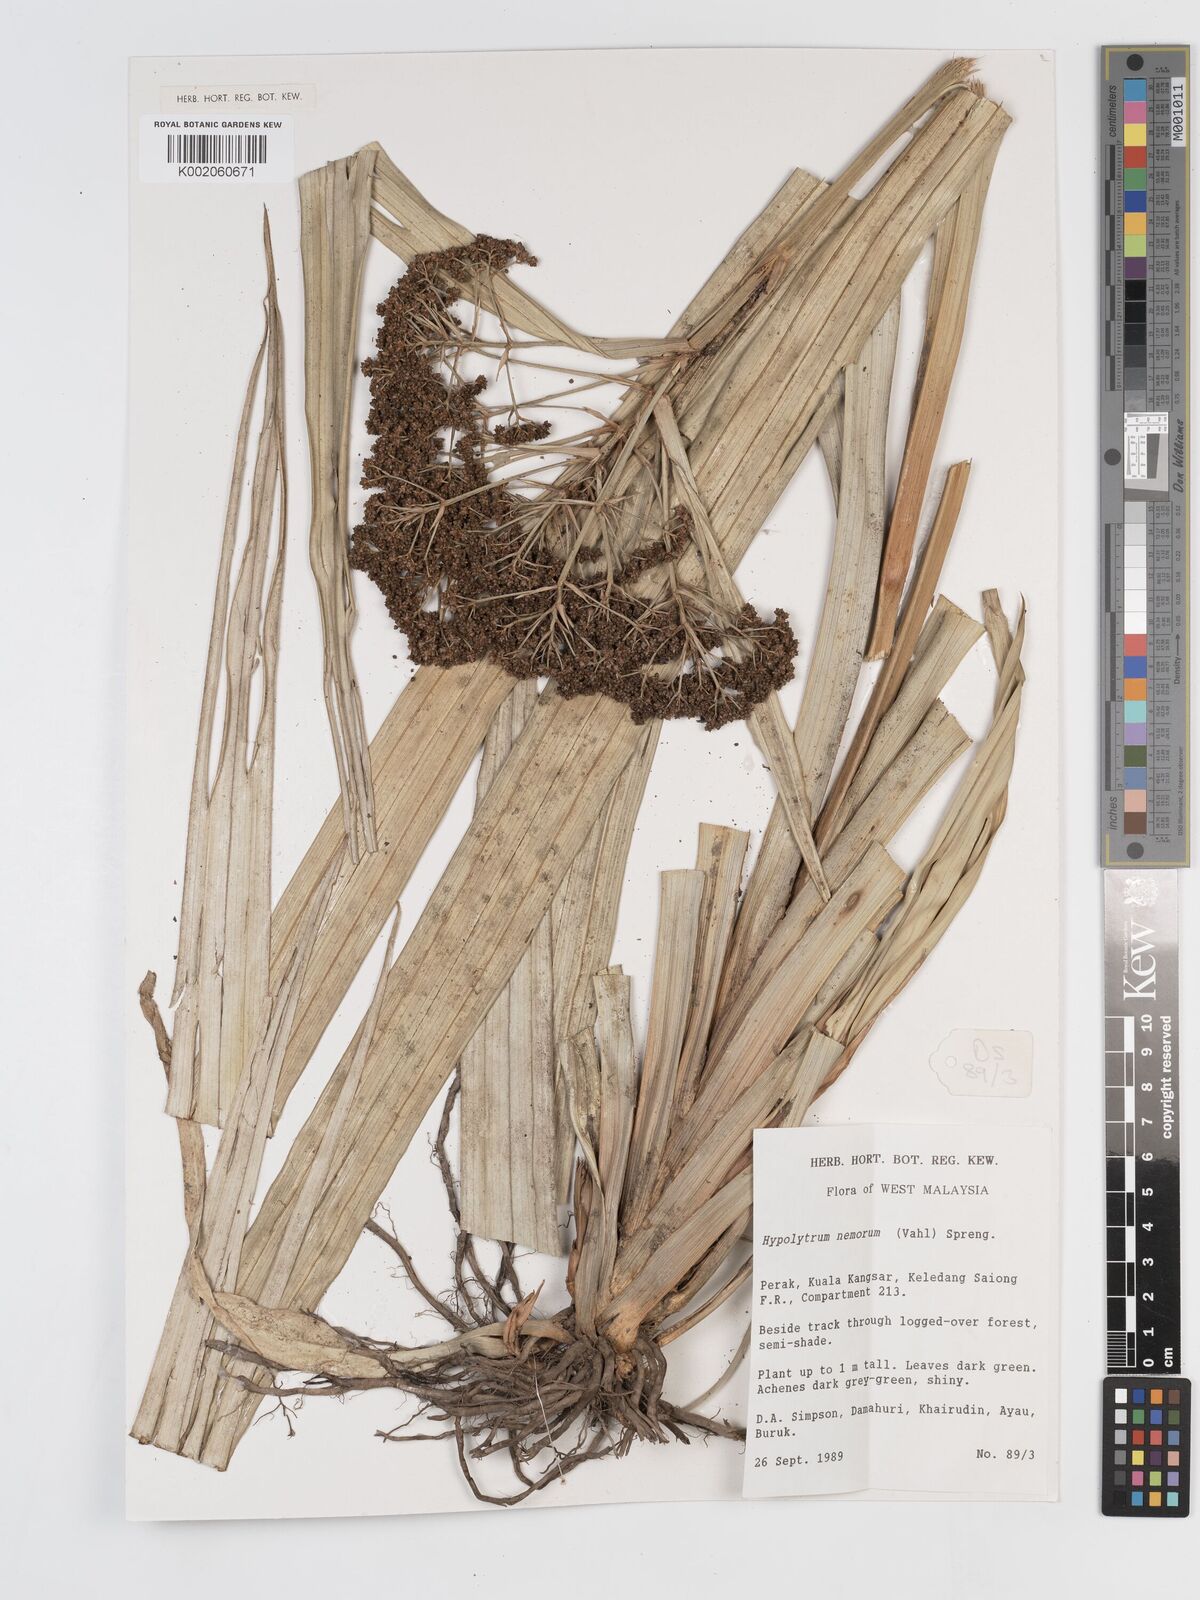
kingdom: Plantae
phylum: Tracheophyta
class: Liliopsida
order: Poales
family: Cyperaceae
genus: Hypolytrum
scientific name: Hypolytrum nemorum
